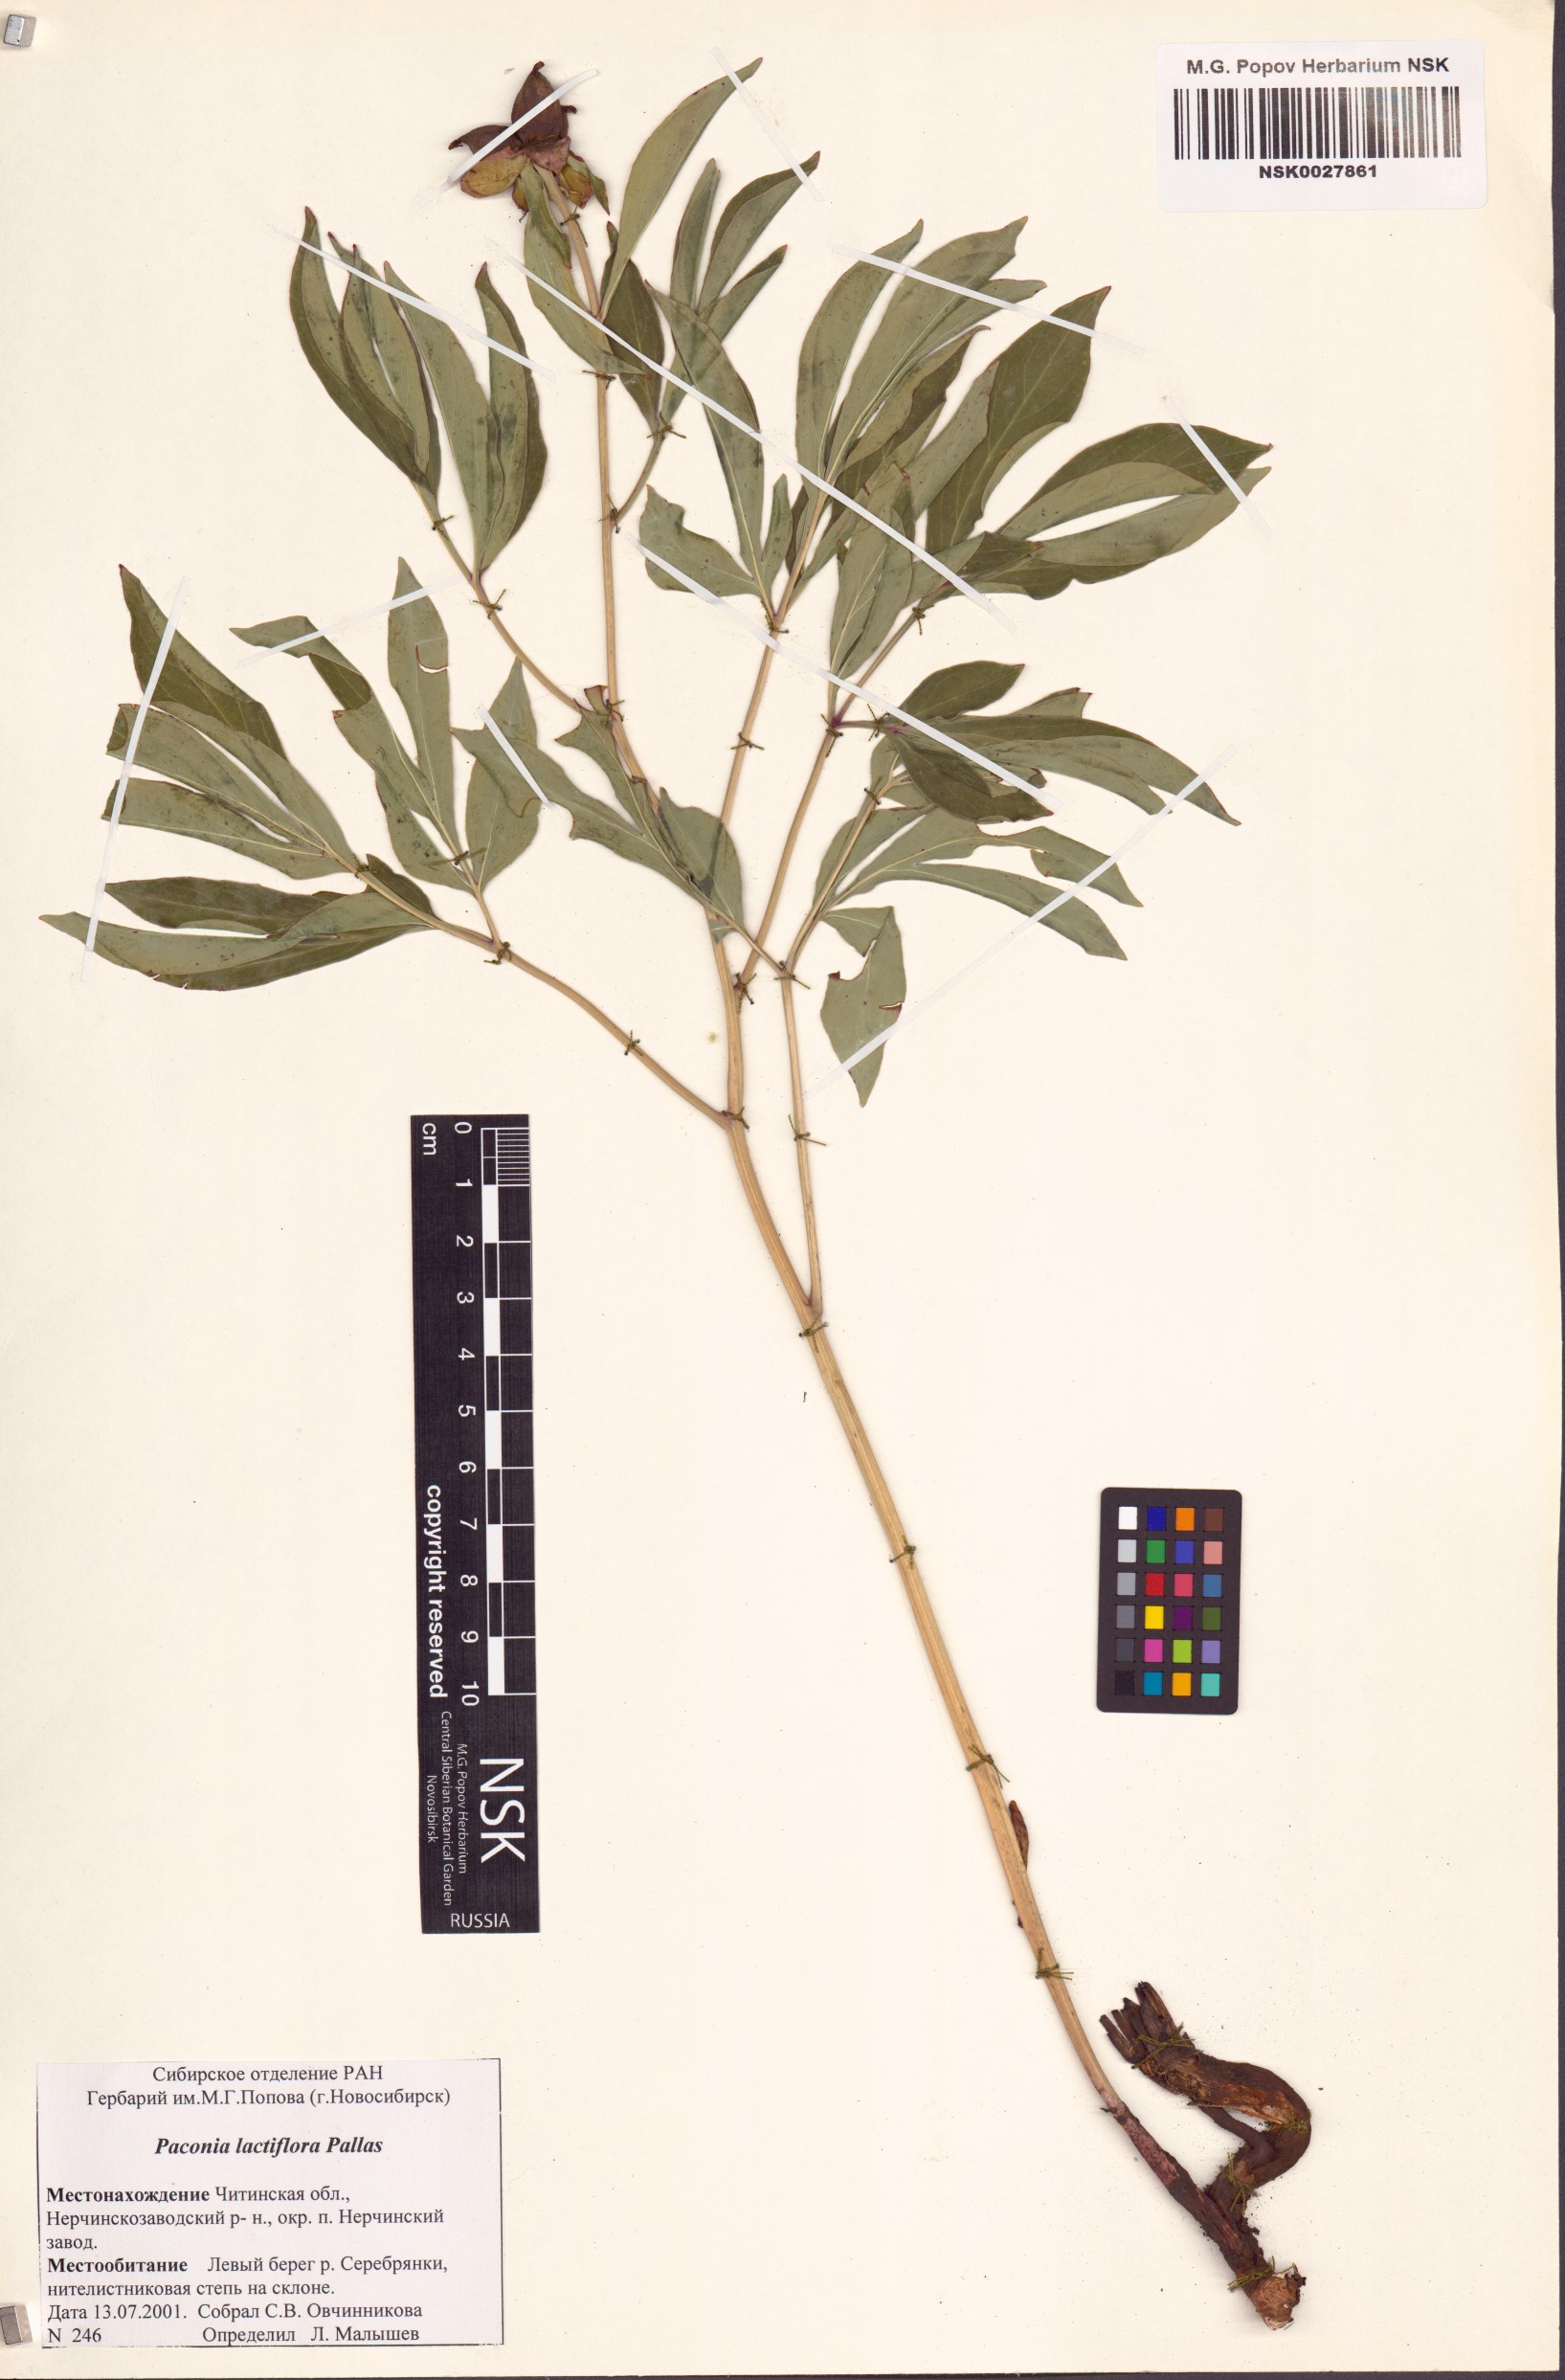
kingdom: Plantae
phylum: Tracheophyta
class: Magnoliopsida
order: Saxifragales
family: Paeoniaceae
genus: Paeonia
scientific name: Paeonia lactiflora
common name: Chinese peony
